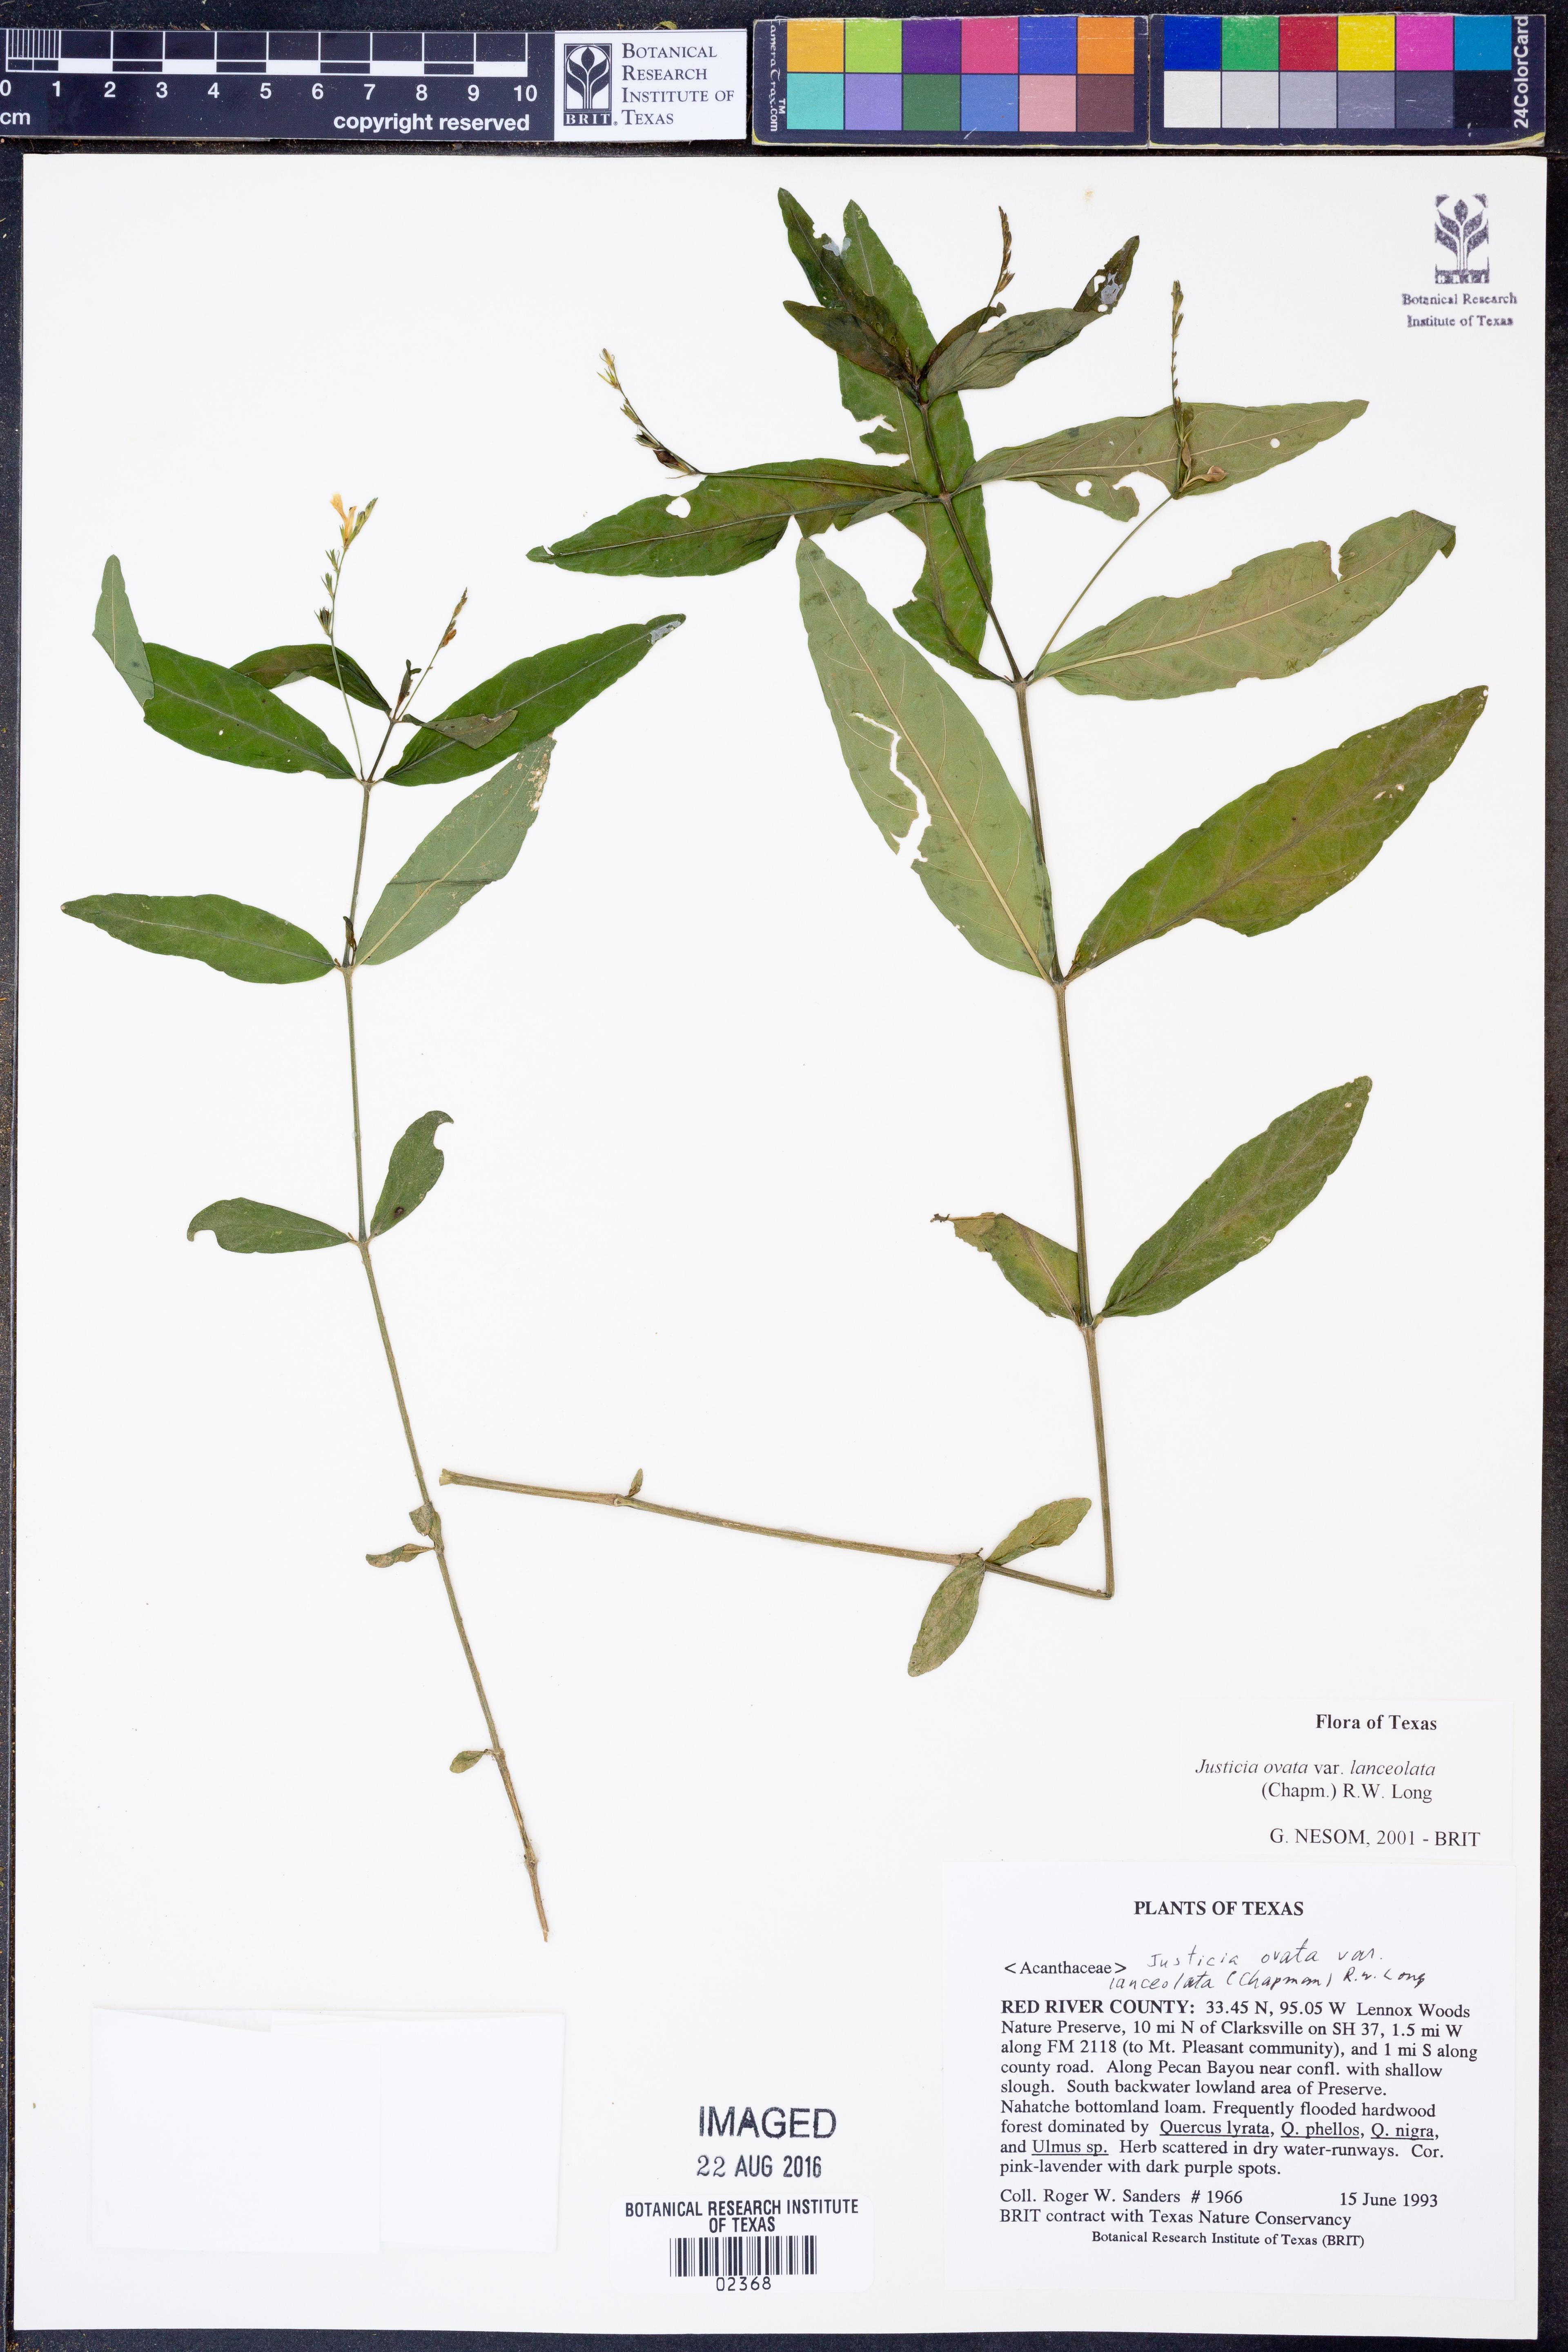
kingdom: Plantae
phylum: Tracheophyta
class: Magnoliopsida
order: Lamiales
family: Acanthaceae
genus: Justicia
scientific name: Justicia lanceolata
